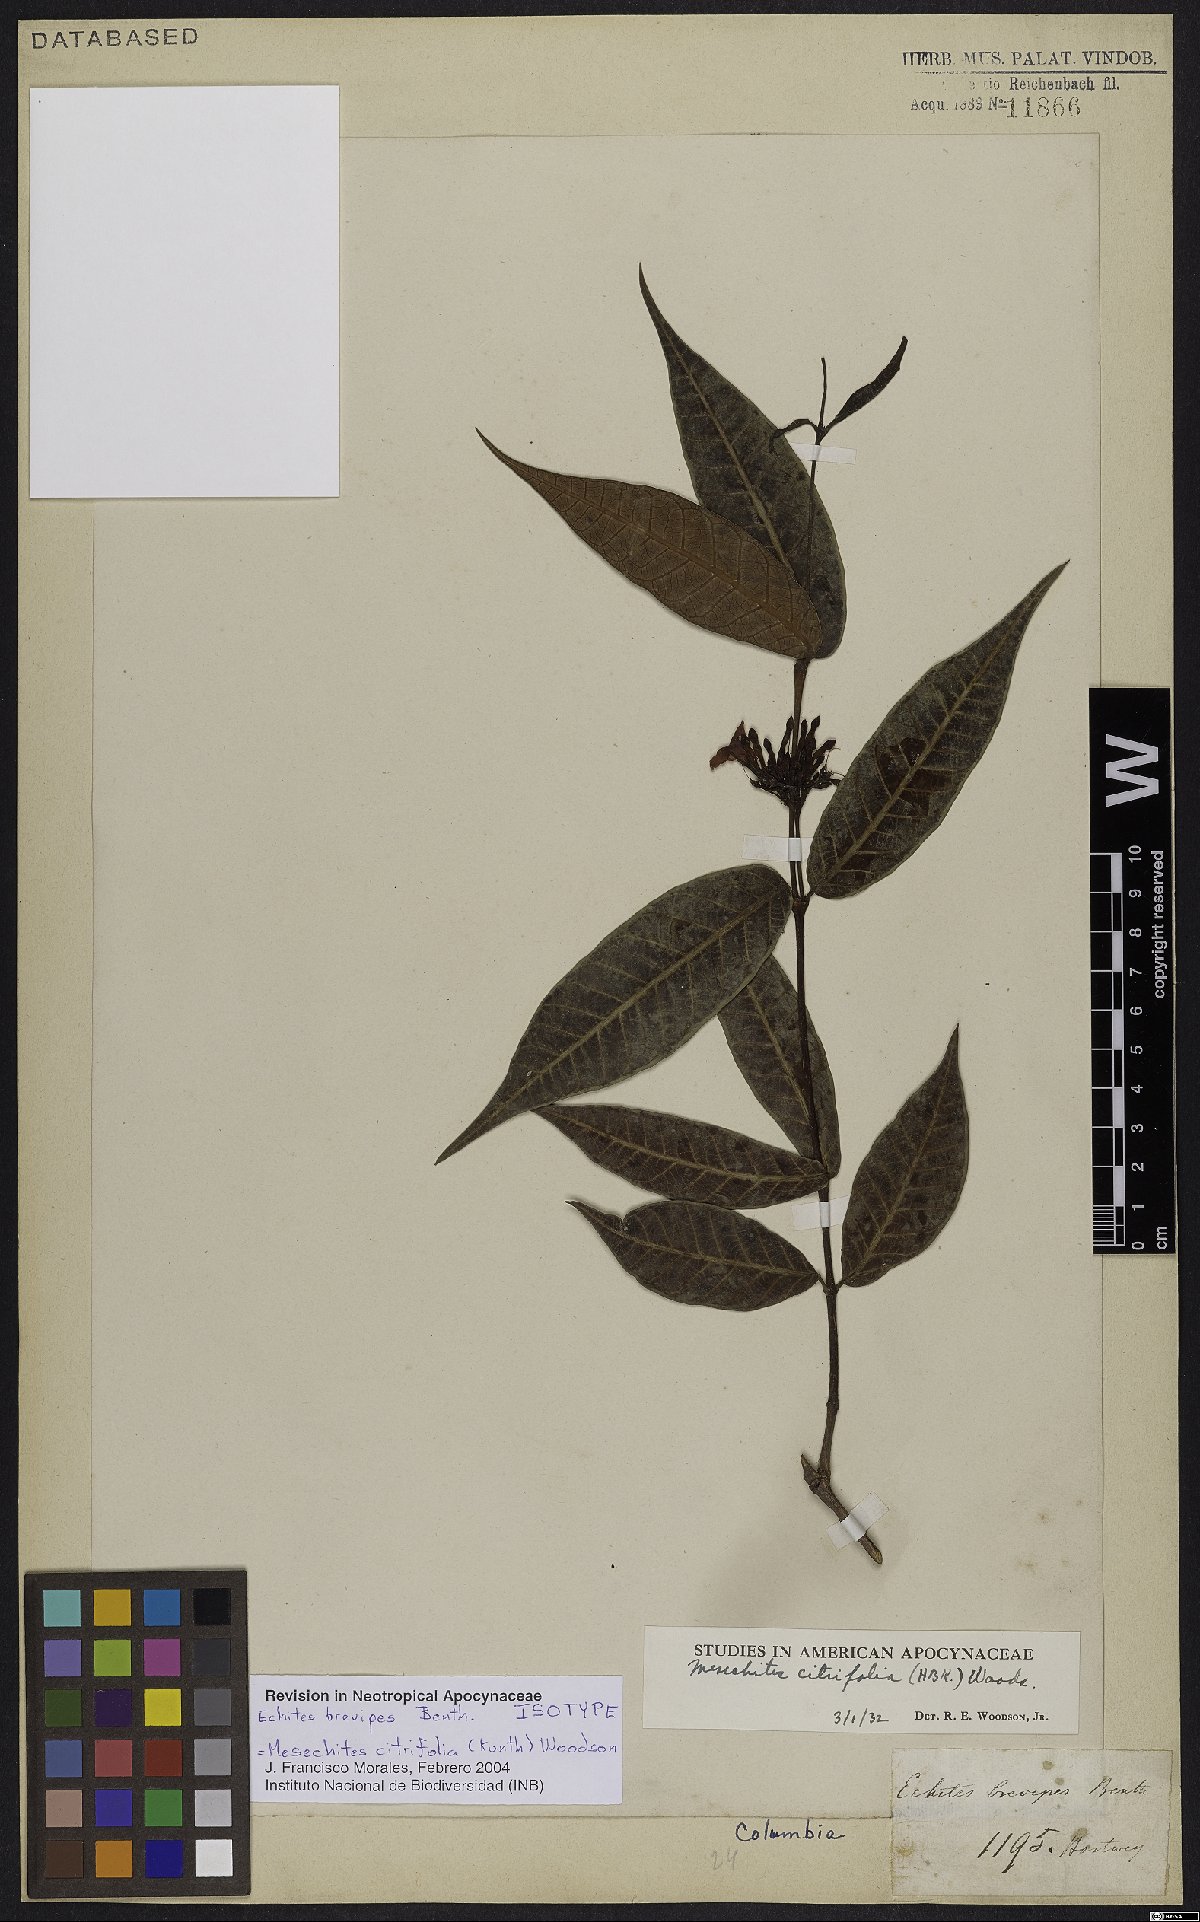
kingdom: Plantae
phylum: Tracheophyta
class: Magnoliopsida
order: Gentianales
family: Apocynaceae
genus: Mesechites
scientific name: Mesechites citrifolius
